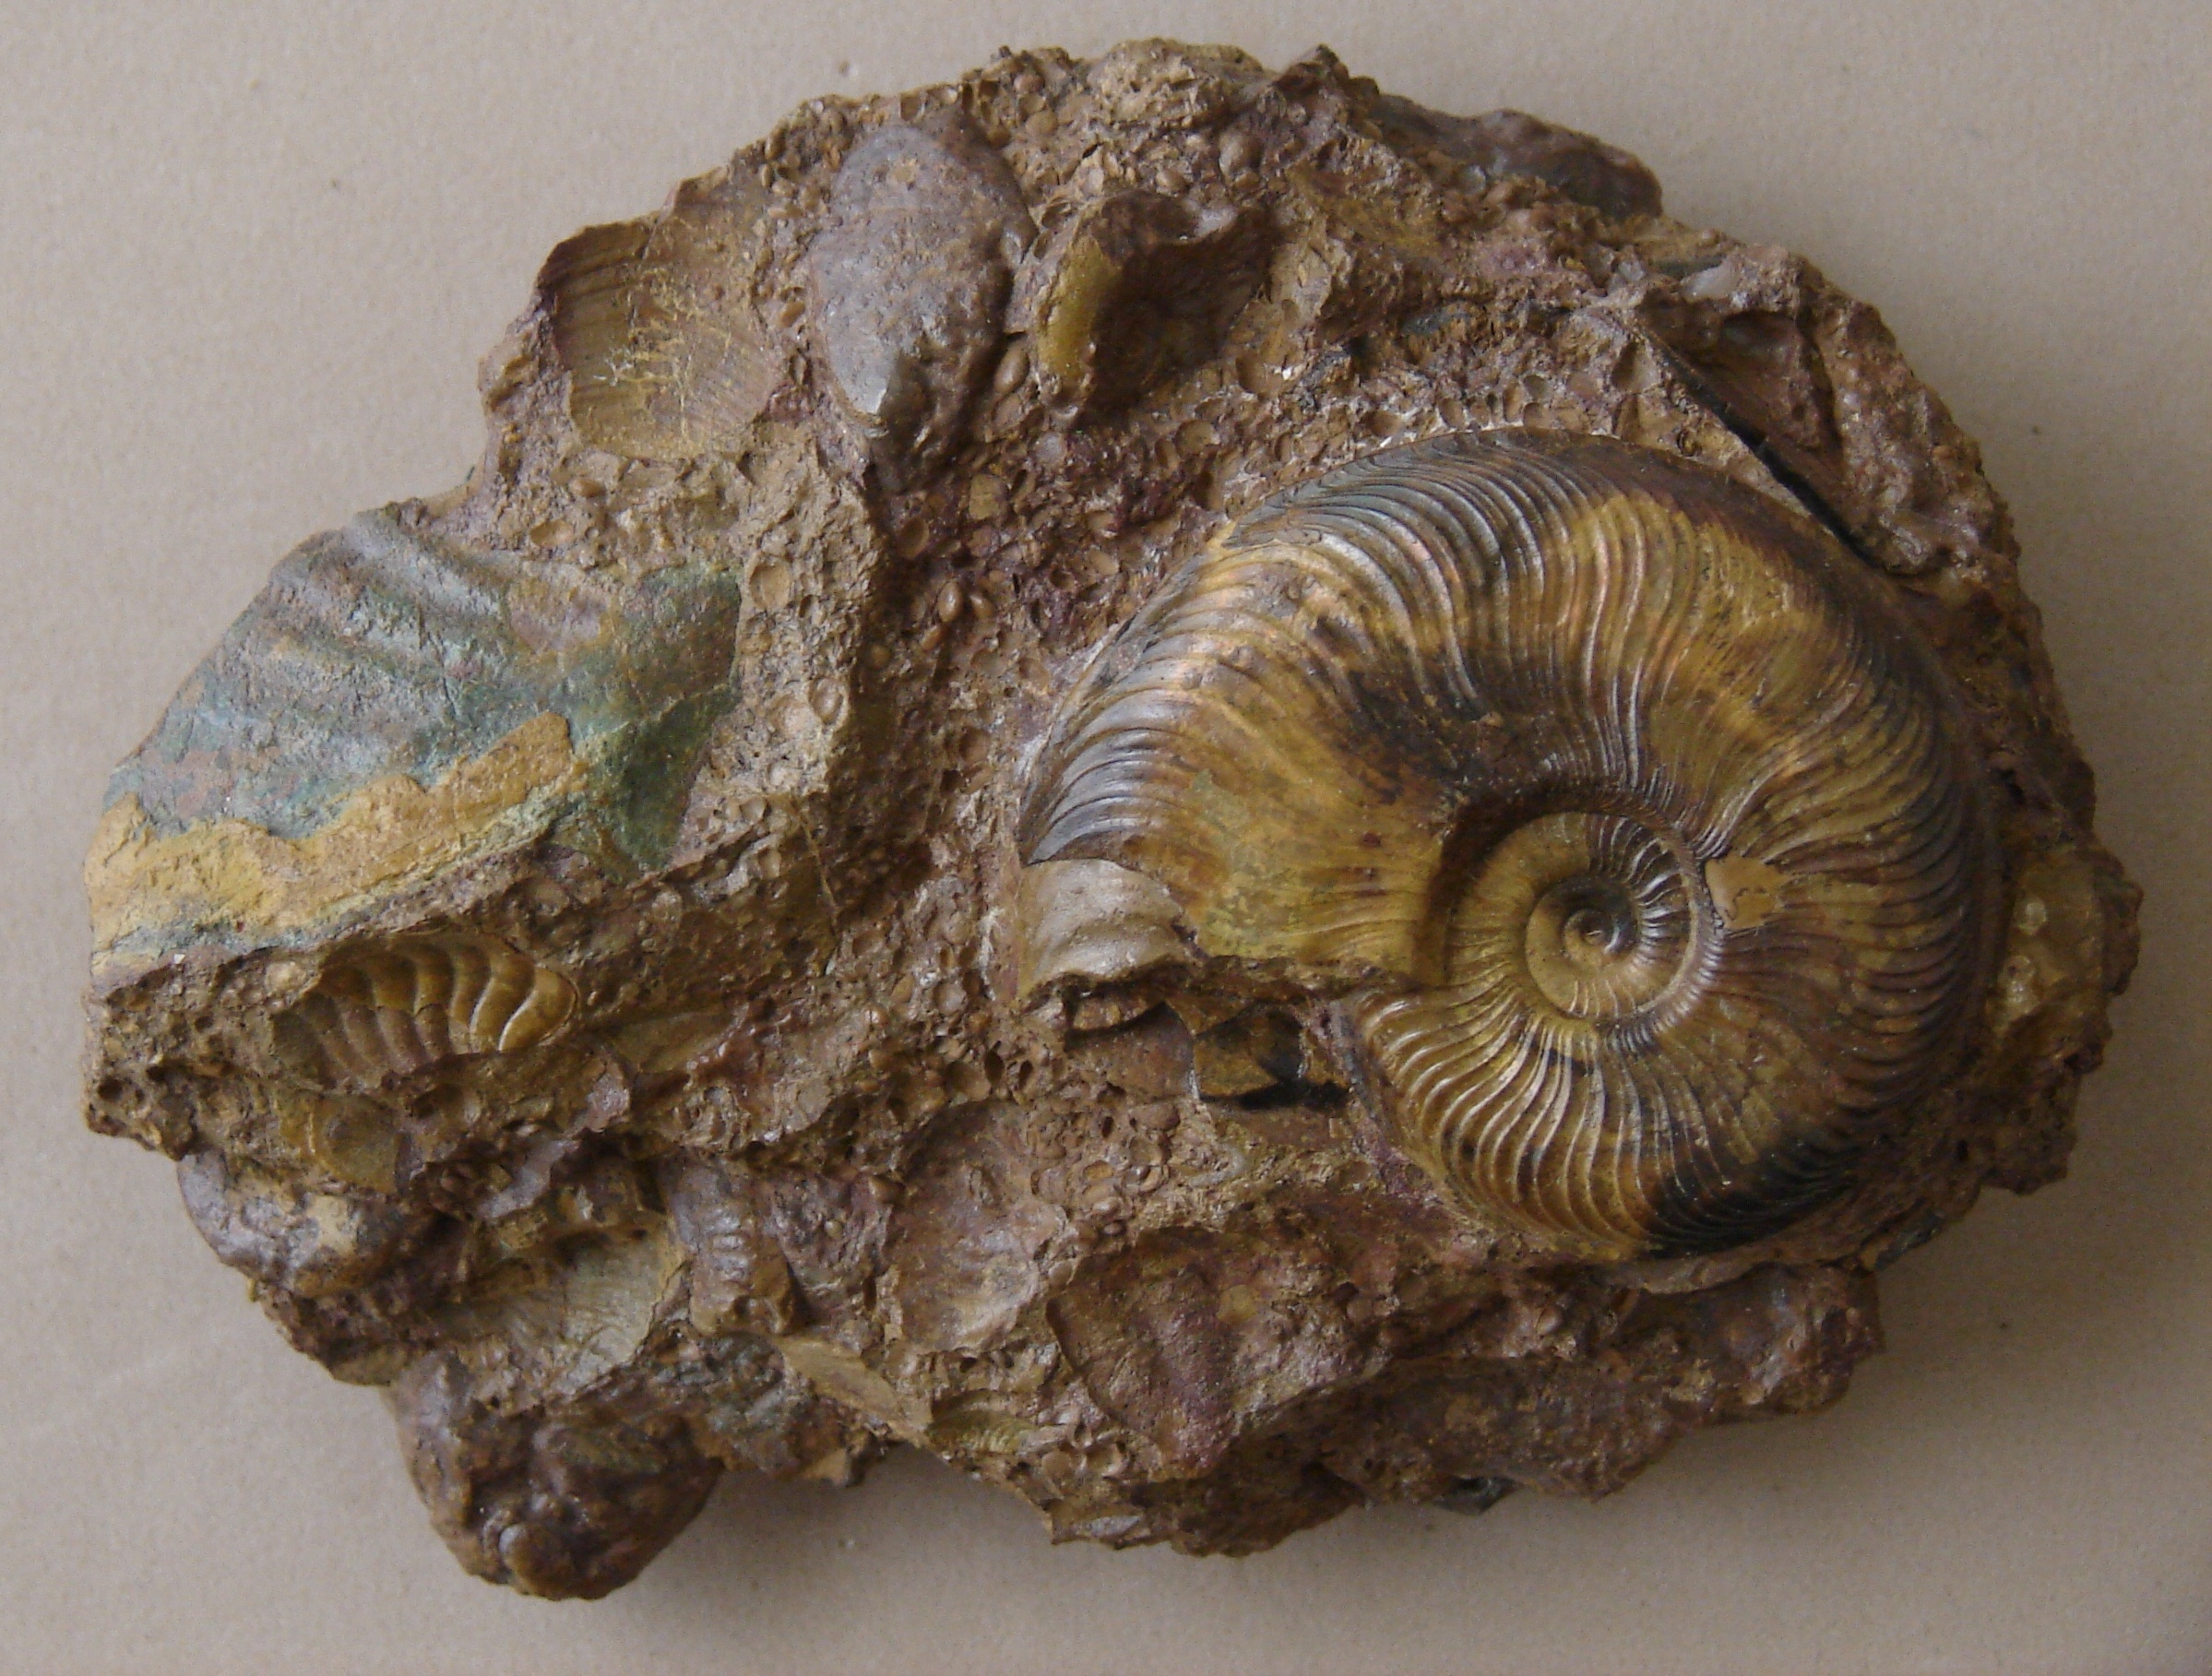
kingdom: Animalia
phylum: Mollusca
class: Cephalopoda
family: Hildoceratidae
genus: Pleydellia
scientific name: Pleydellia aalensis
